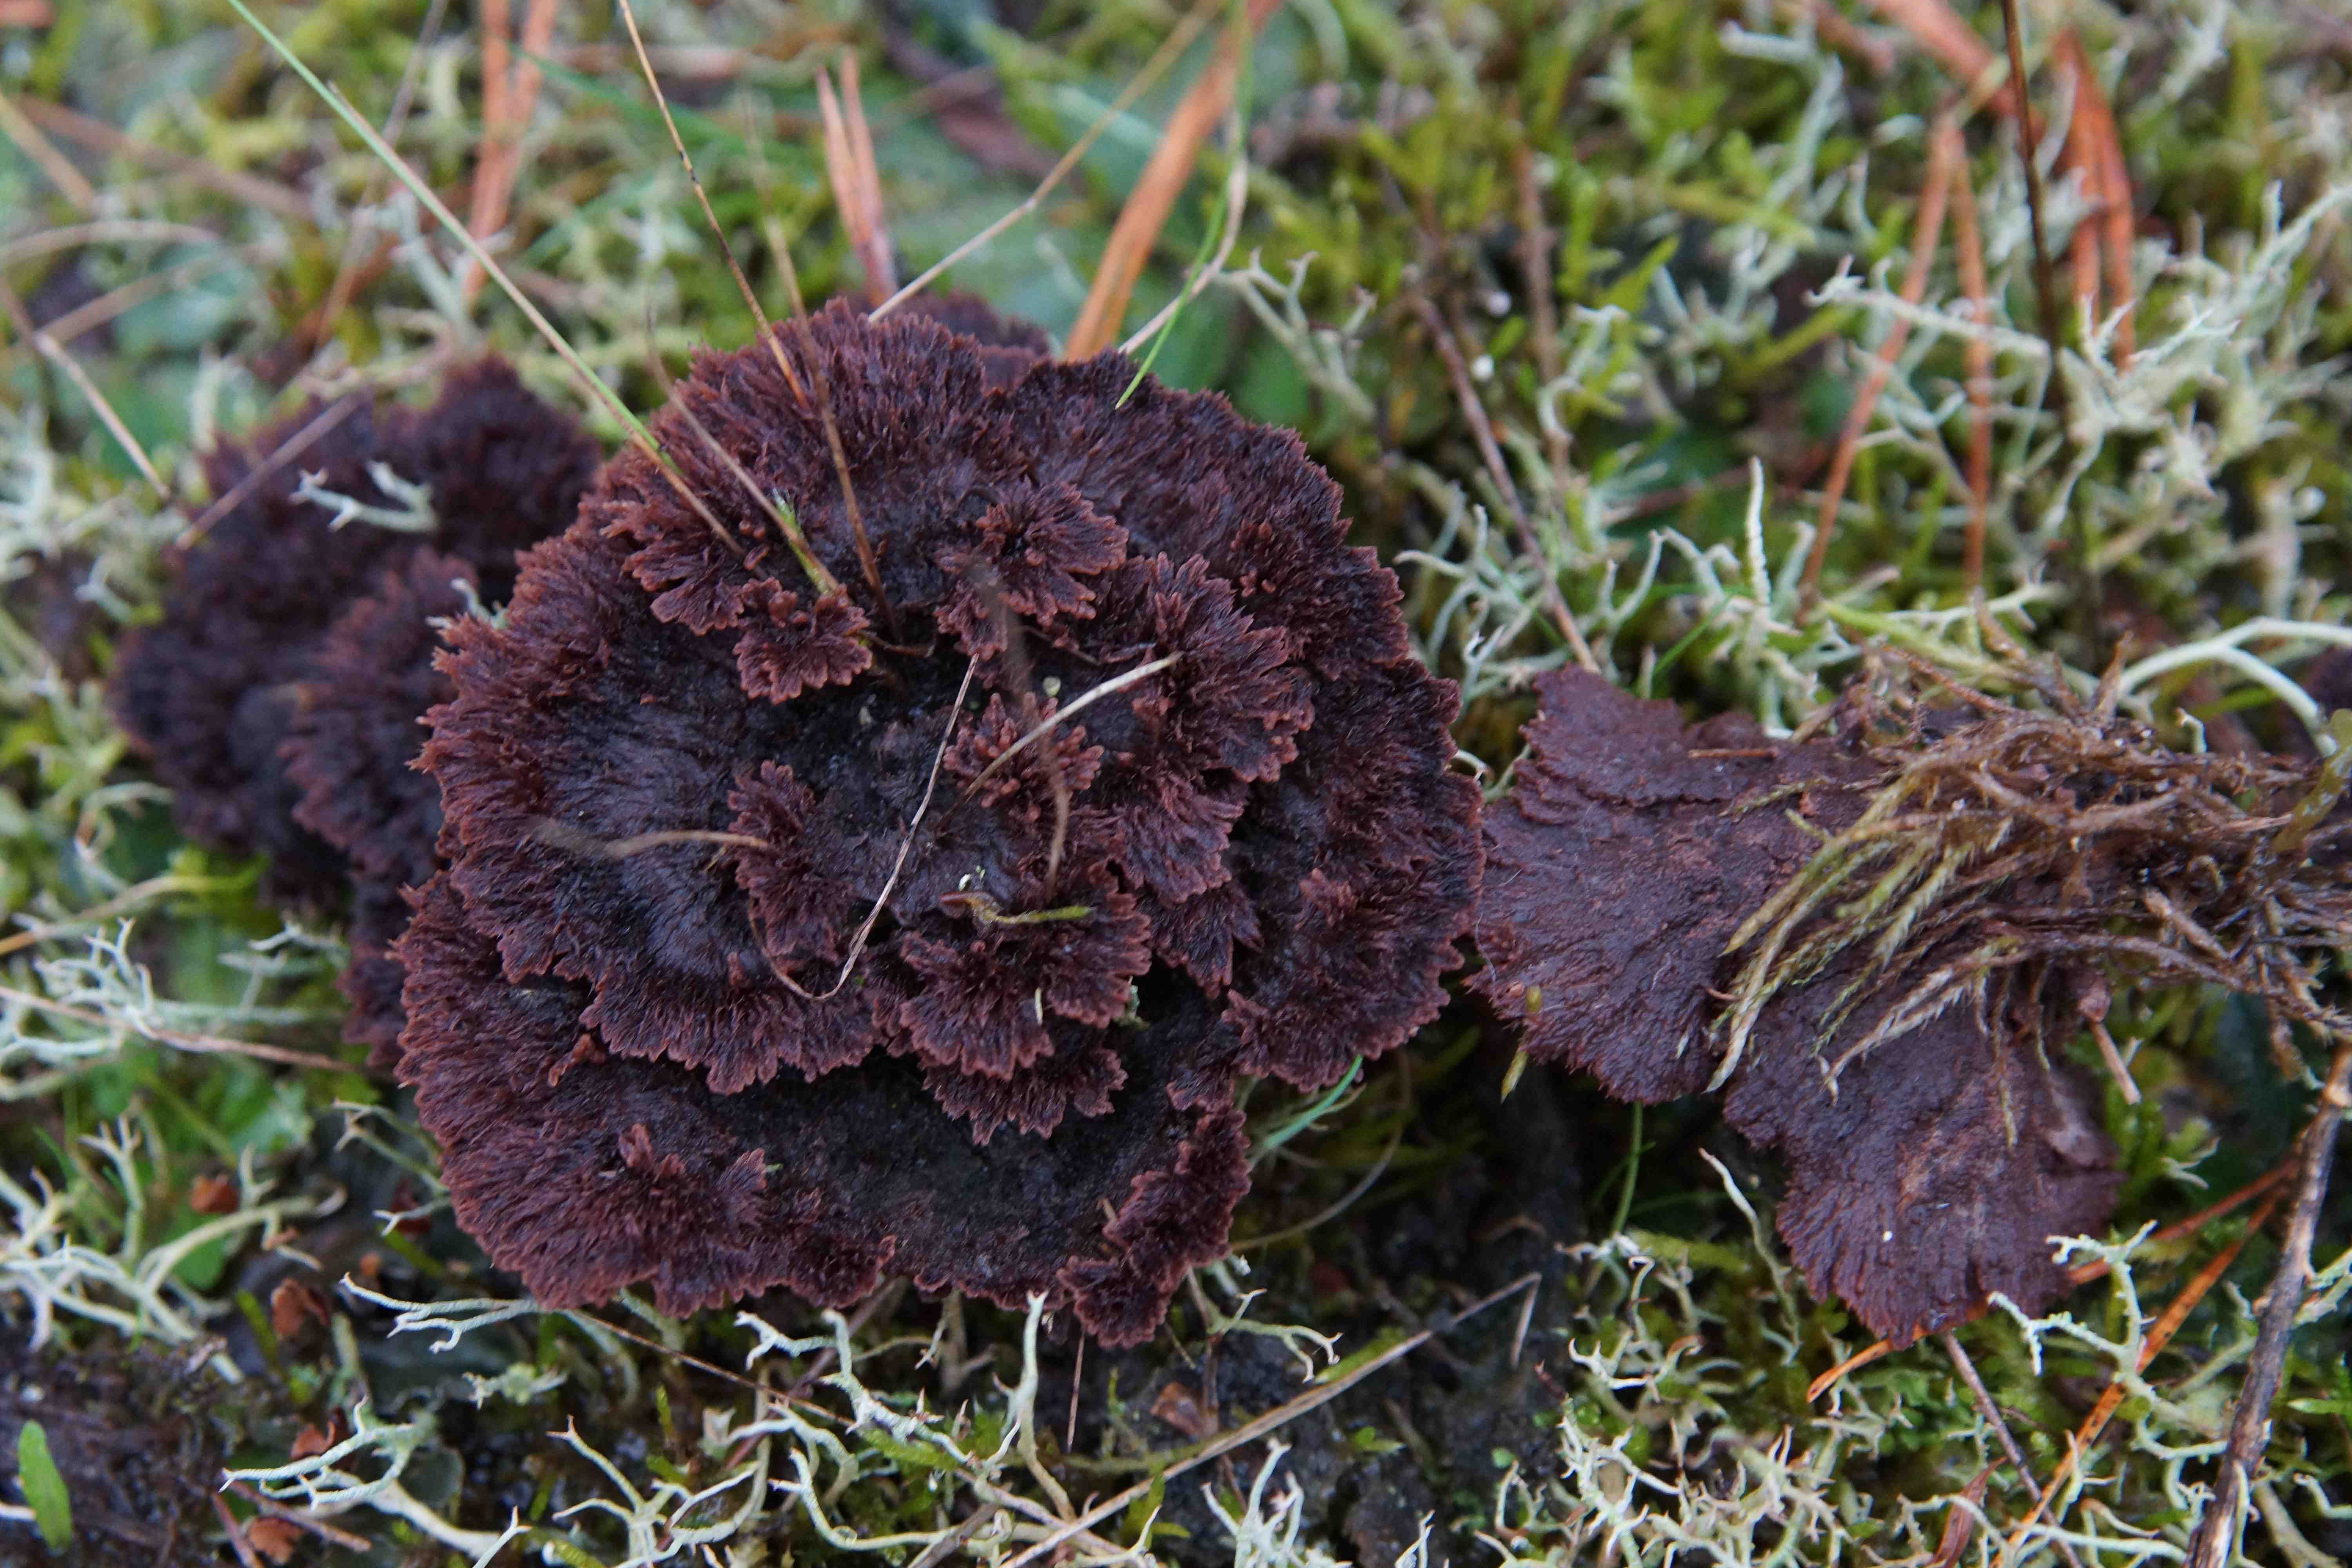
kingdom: Fungi
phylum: Basidiomycota
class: Agaricomycetes
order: Thelephorales
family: Thelephoraceae
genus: Thelephora
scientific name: Thelephora terrestris
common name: fliget frynsesvamp
